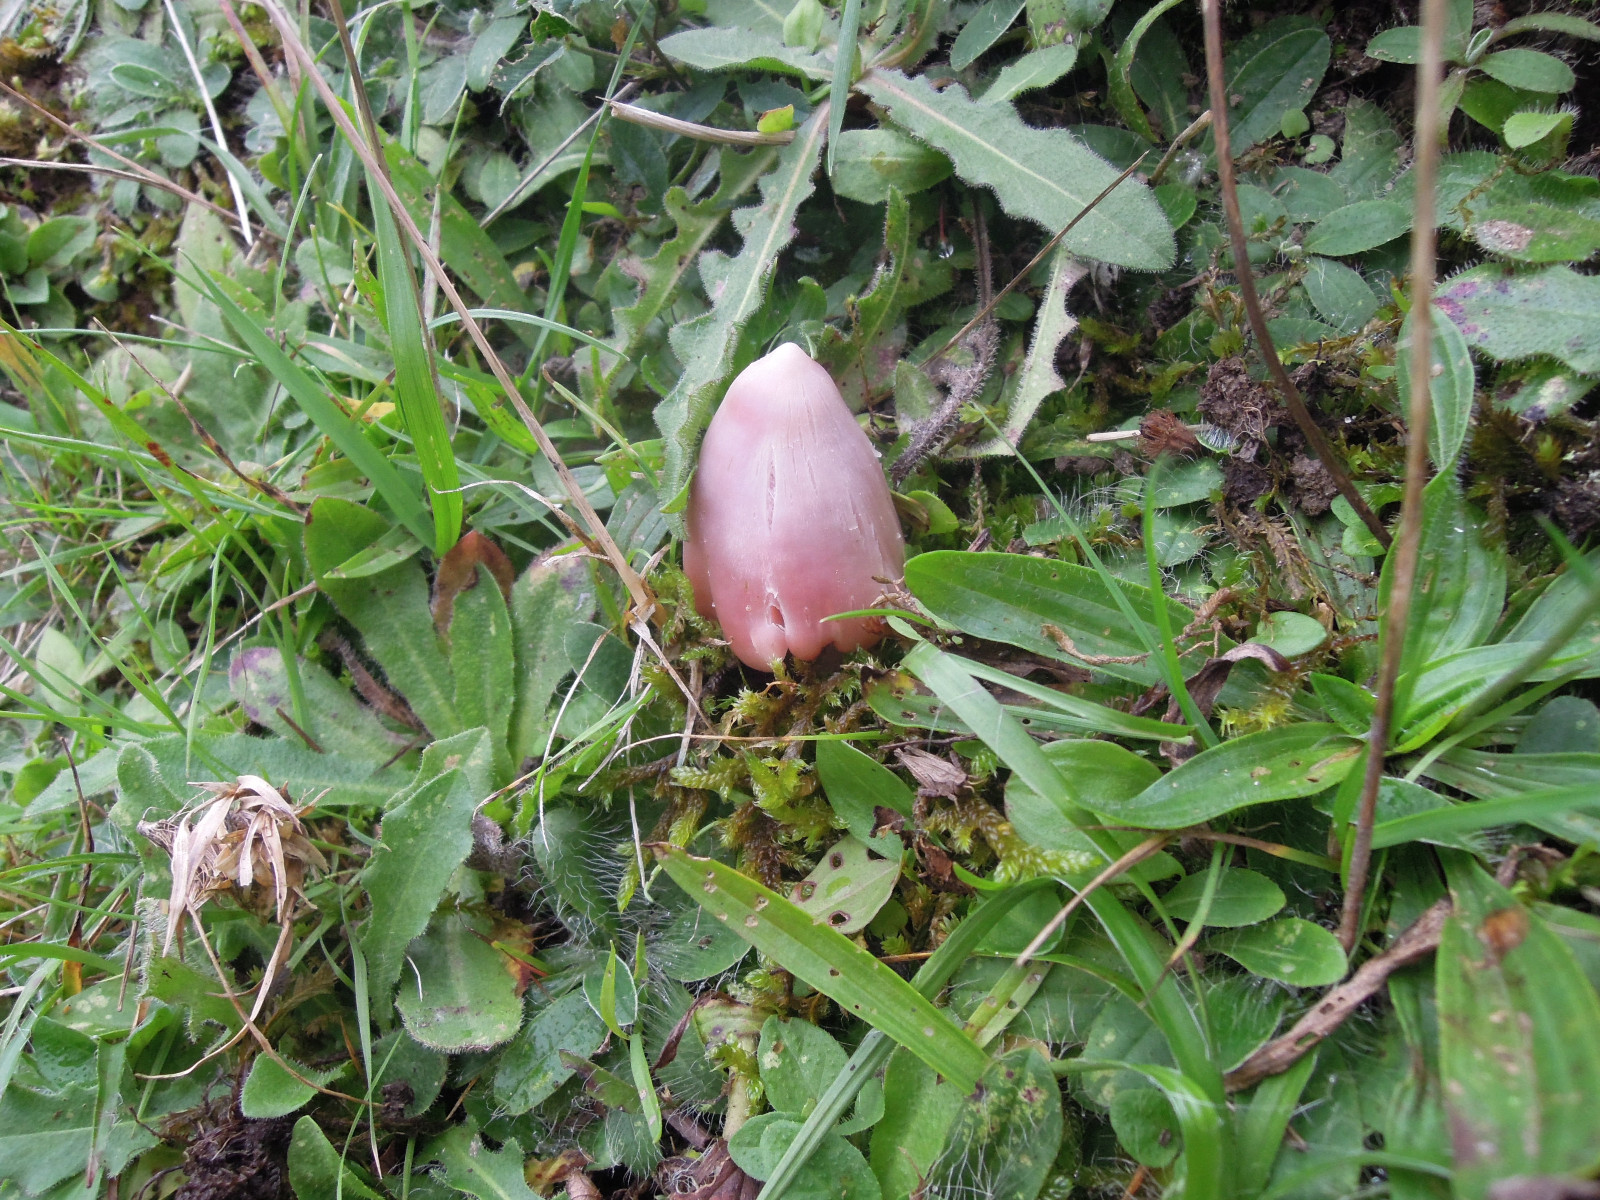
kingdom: Fungi
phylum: Basidiomycota
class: Agaricomycetes
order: Agaricales
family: Hygrophoraceae
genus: Porpolomopsis
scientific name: Porpolomopsis calyptriformis
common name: rosenrød vokshat
